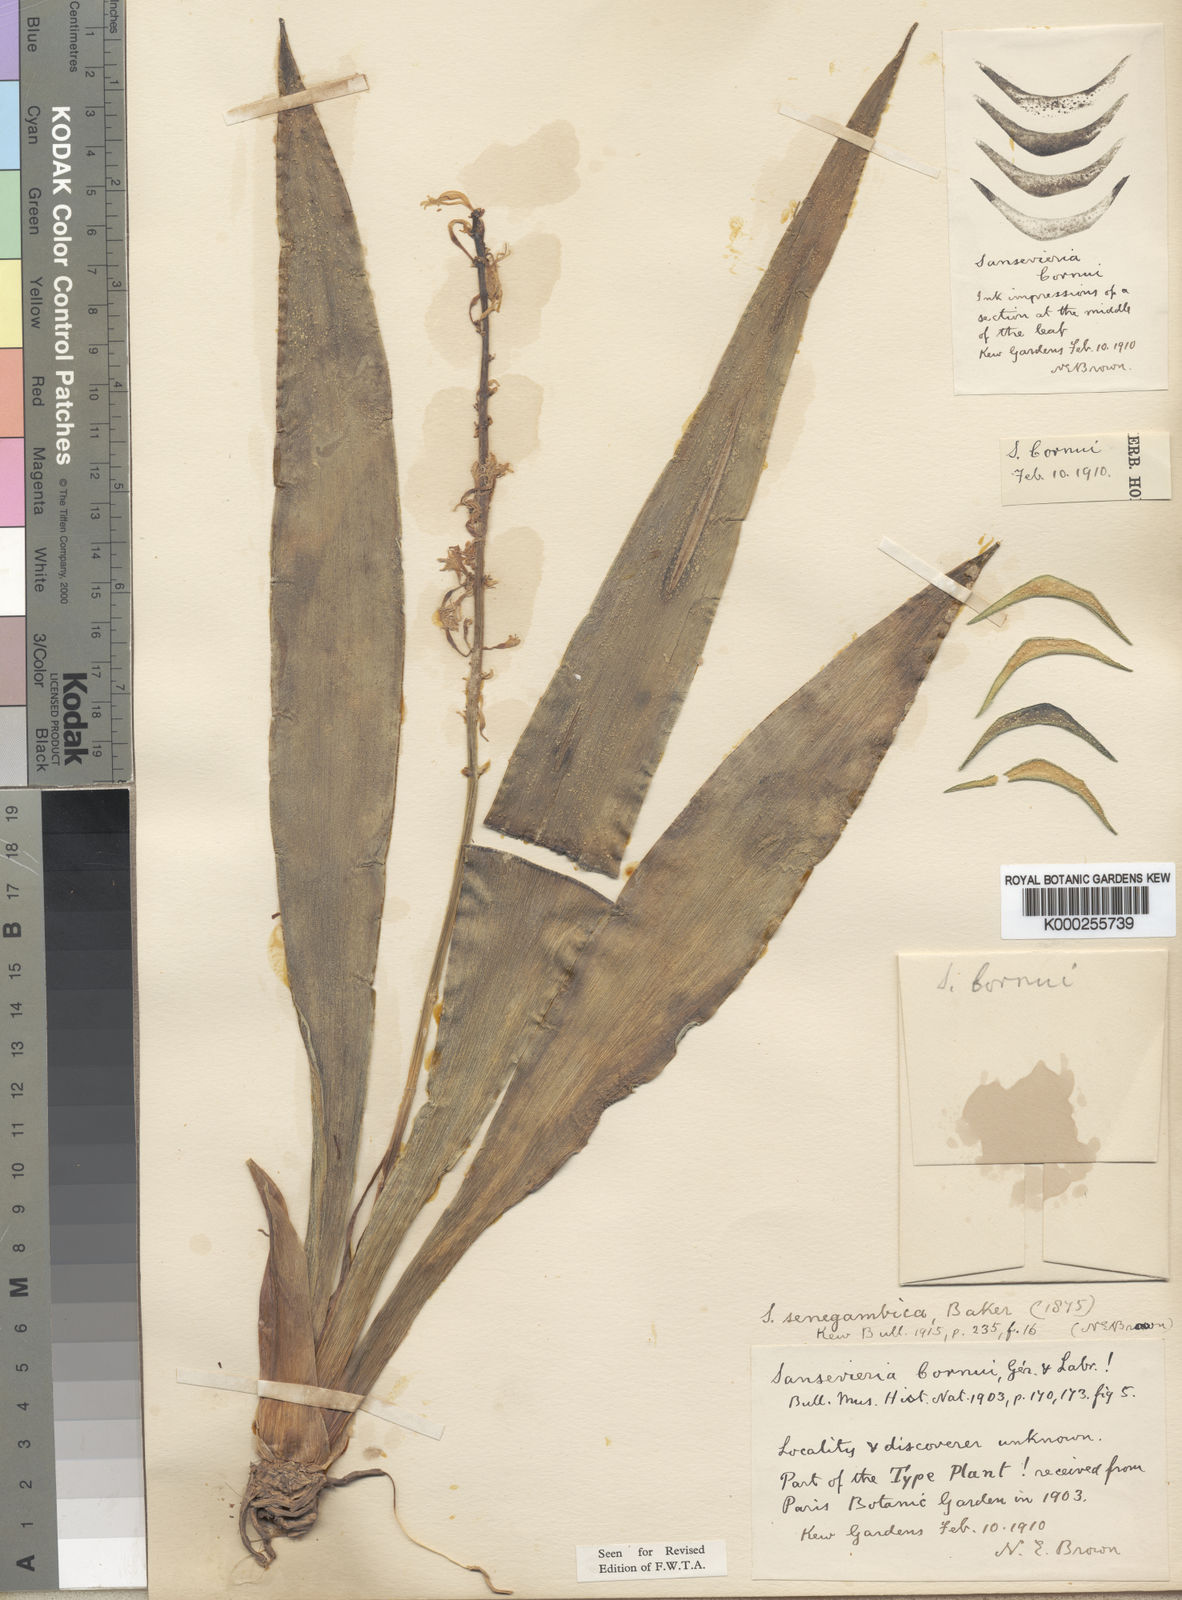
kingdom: Plantae
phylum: Tracheophyta
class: Liliopsida
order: Asparagales
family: Asparagaceae
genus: Dracaena
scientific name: Dracaena senegambica
